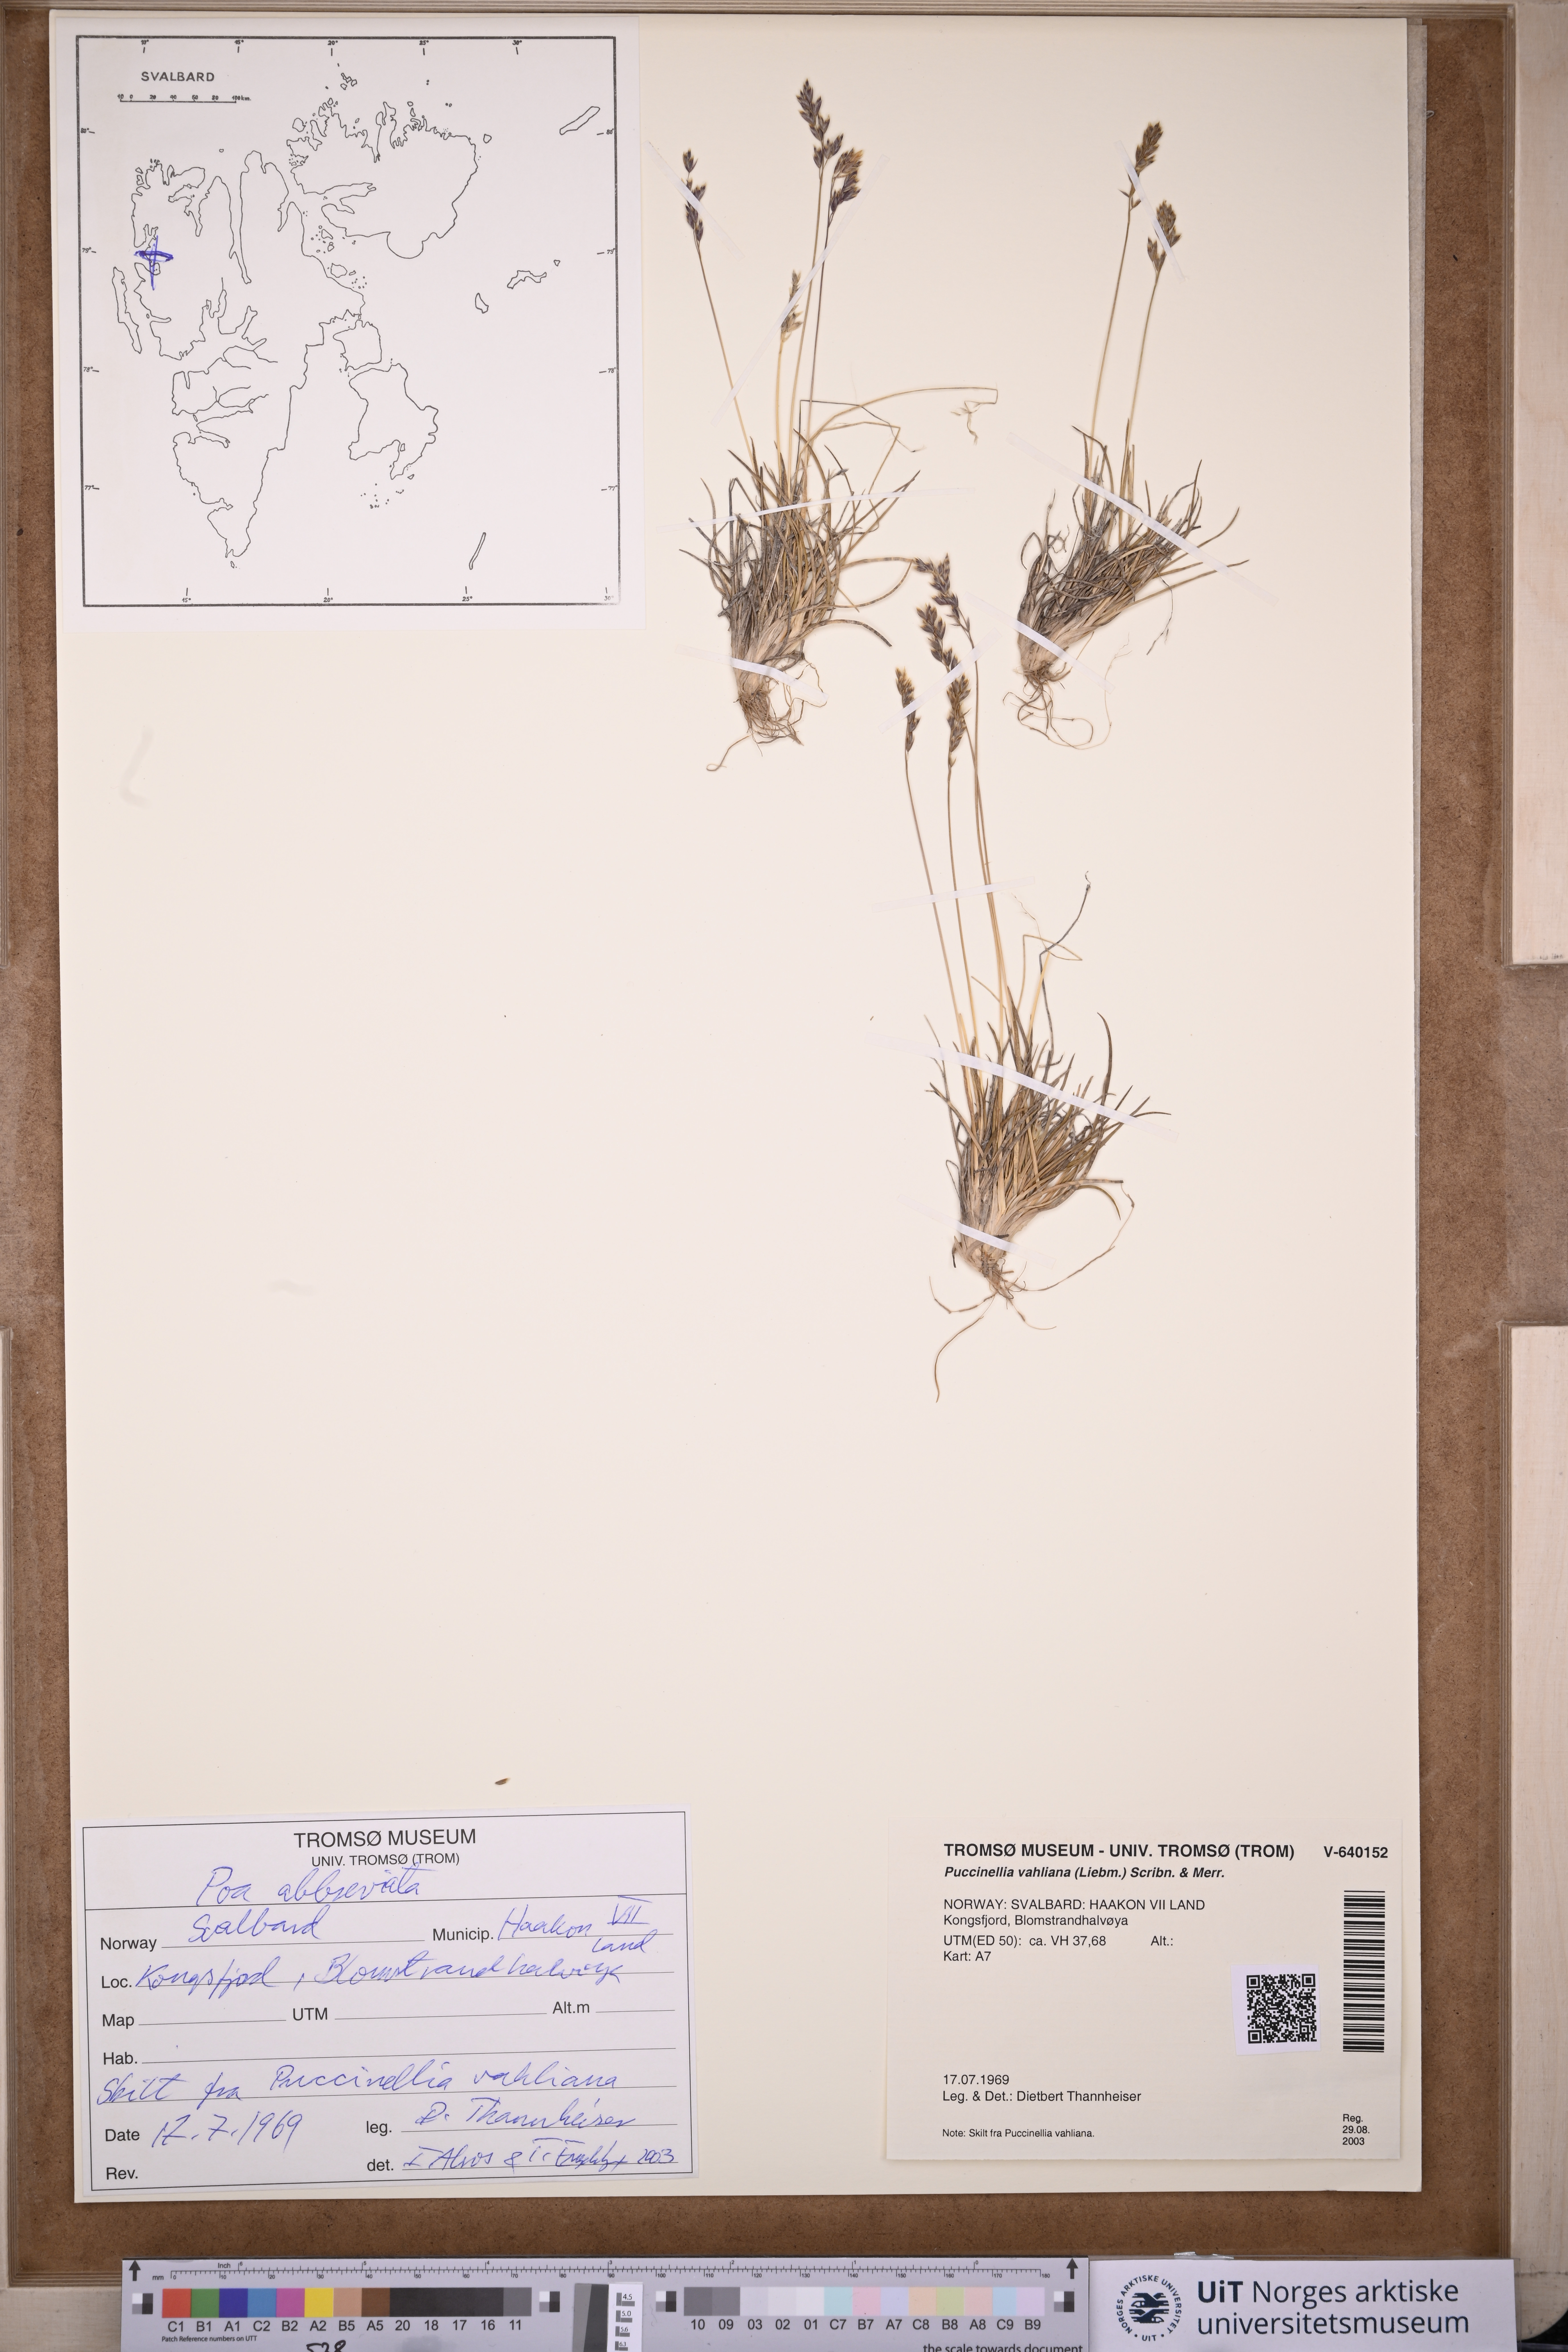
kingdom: Plantae
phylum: Tracheophyta
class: Liliopsida
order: Poales
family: Poaceae
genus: Poa
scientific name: Poa abbreviata
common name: Abbreviated bluegrass
